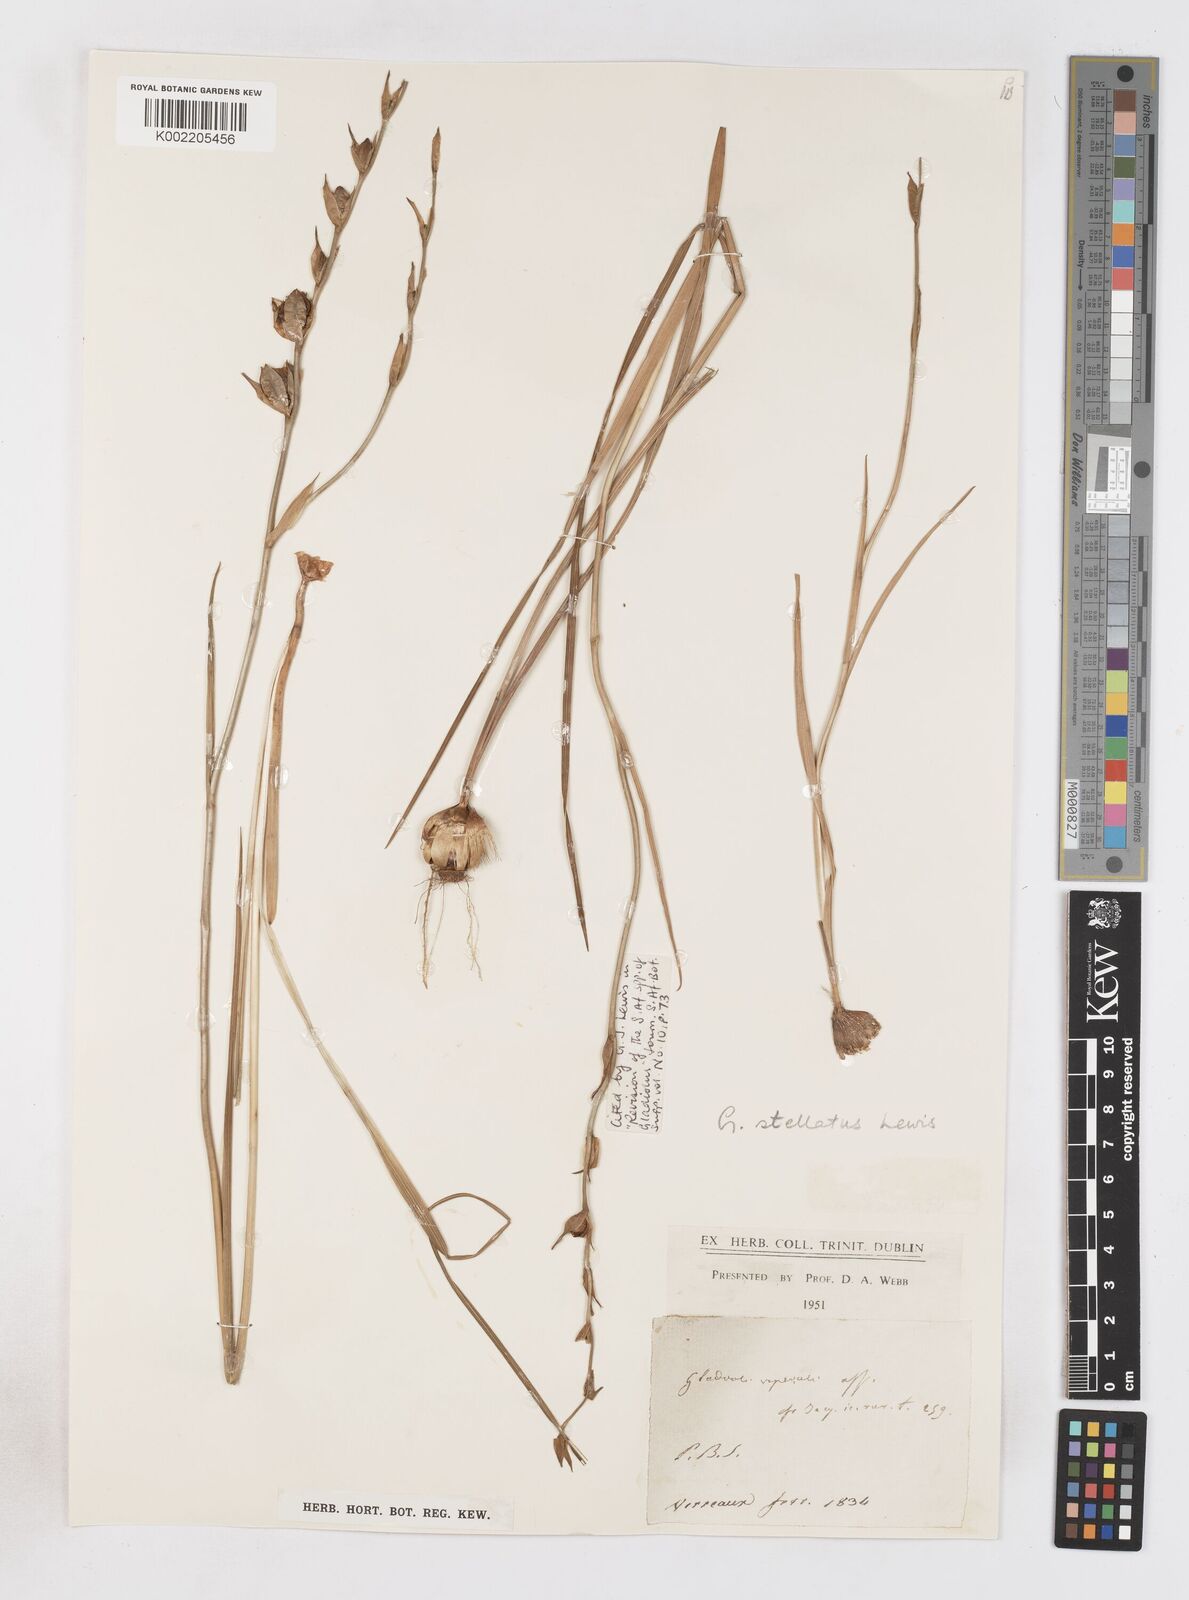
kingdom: Plantae
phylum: Tracheophyta
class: Liliopsida
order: Asparagales
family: Iridaceae
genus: Gladiolus
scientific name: Gladiolus stellatus
